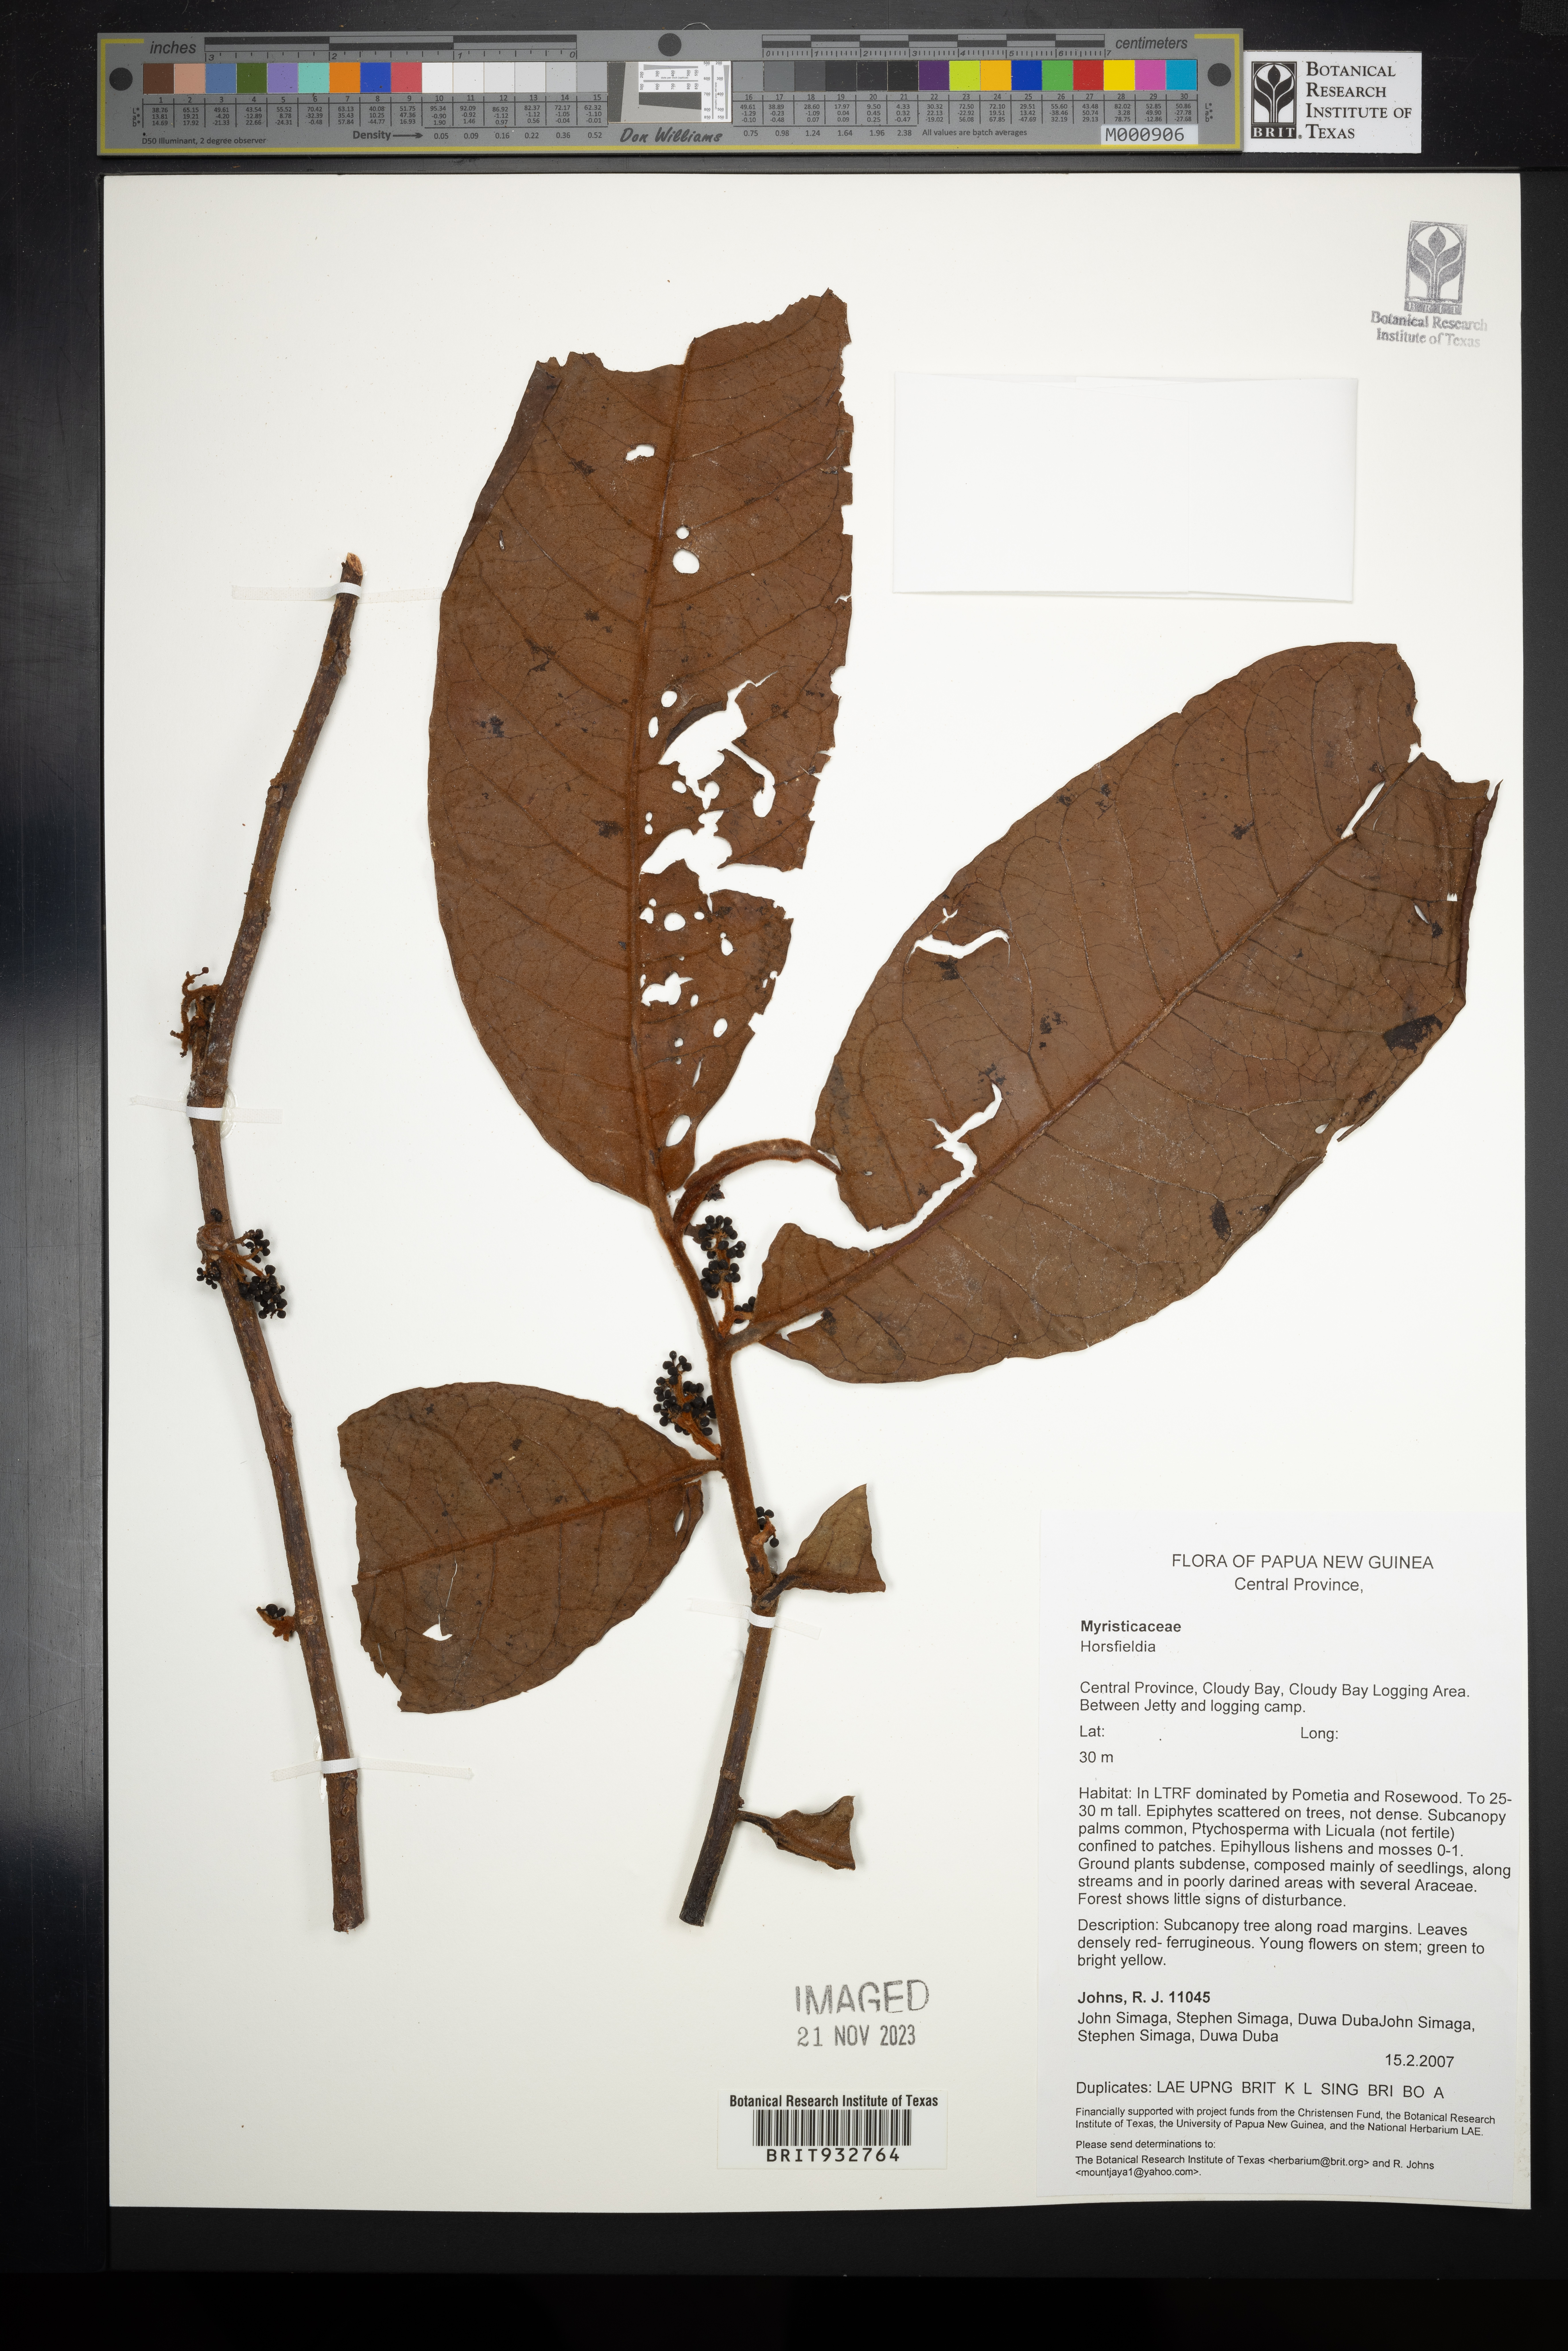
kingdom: Plantae
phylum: Tracheophyta
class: Magnoliopsida
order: Magnoliales
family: Myristicaceae
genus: Horsfieldia
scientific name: Horsfieldia
